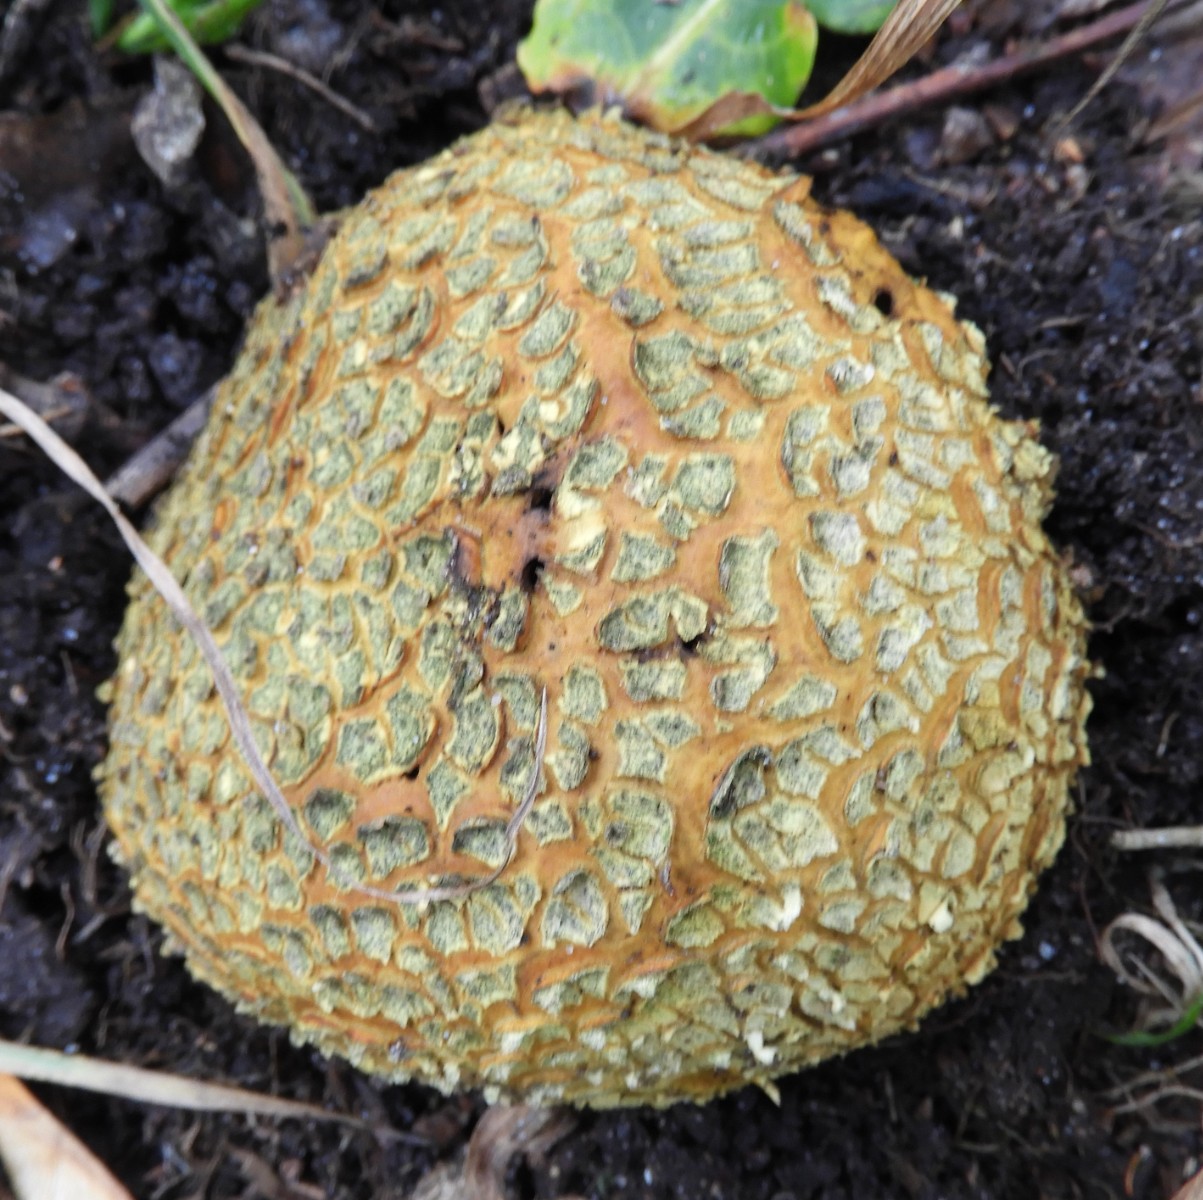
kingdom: Fungi
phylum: Basidiomycota
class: Agaricomycetes
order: Boletales
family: Sclerodermataceae
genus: Scleroderma
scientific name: Scleroderma citrinum
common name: almindelig bruskbold
